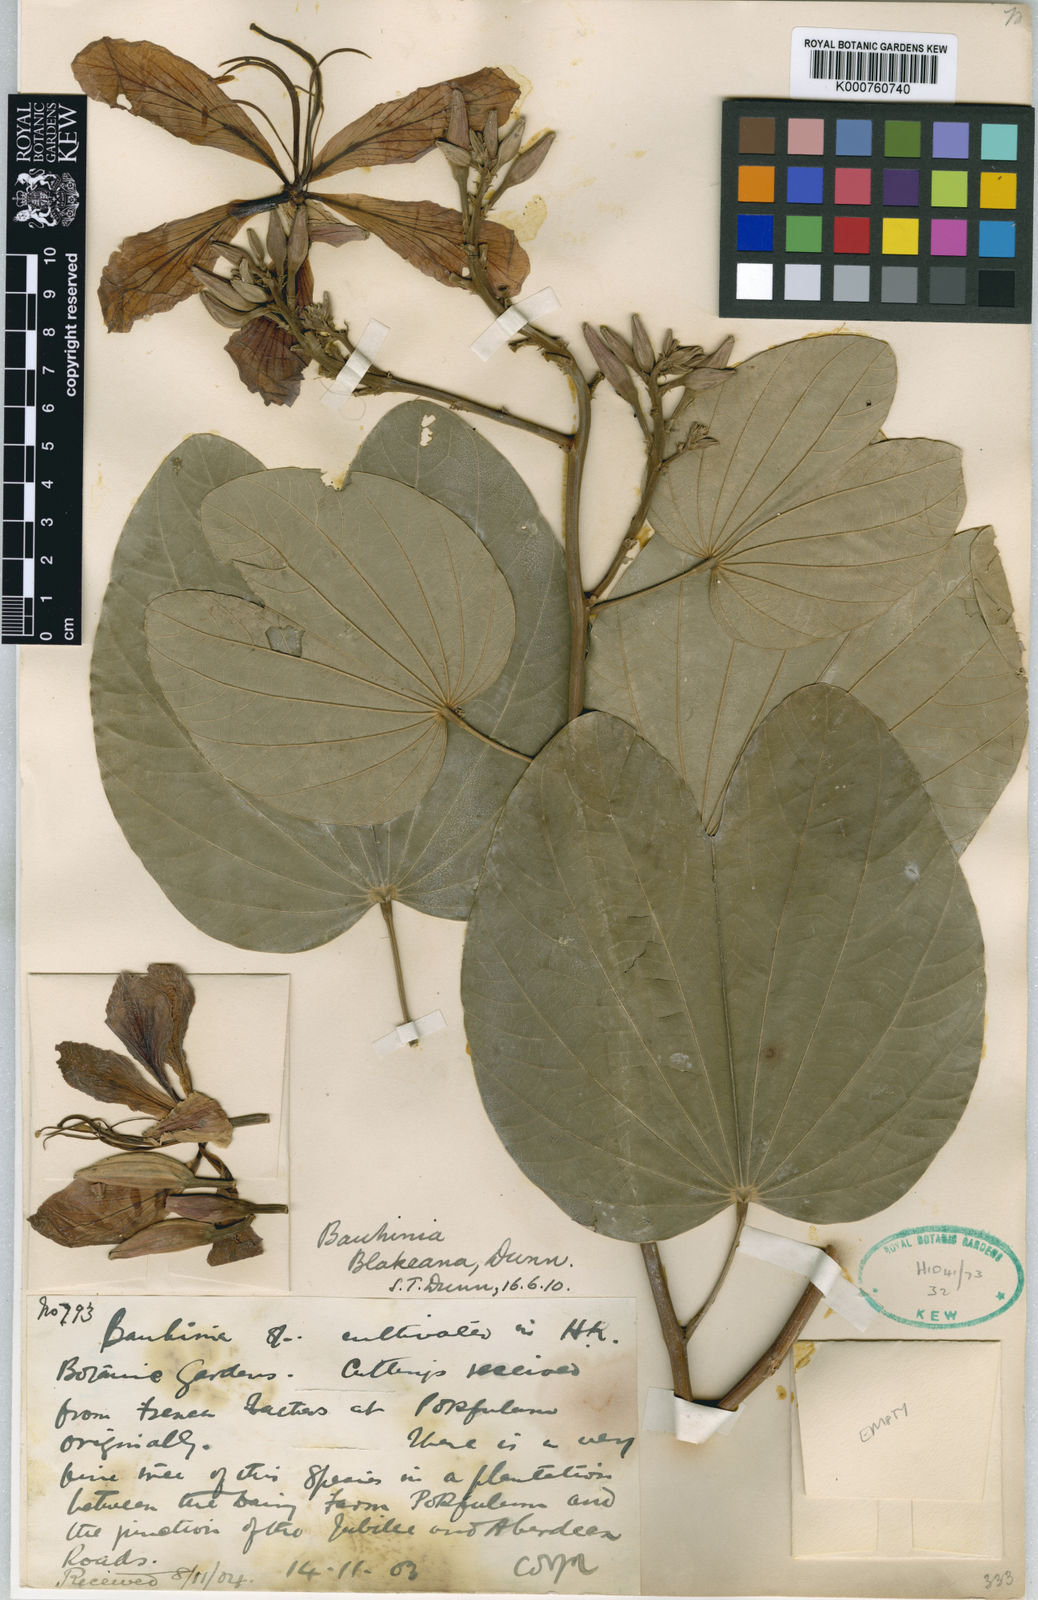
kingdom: Plantae
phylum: Tracheophyta
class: Magnoliopsida
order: Fabales
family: Fabaceae
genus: Bauhinia
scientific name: Bauhinia blakeana
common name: Bauhinia
